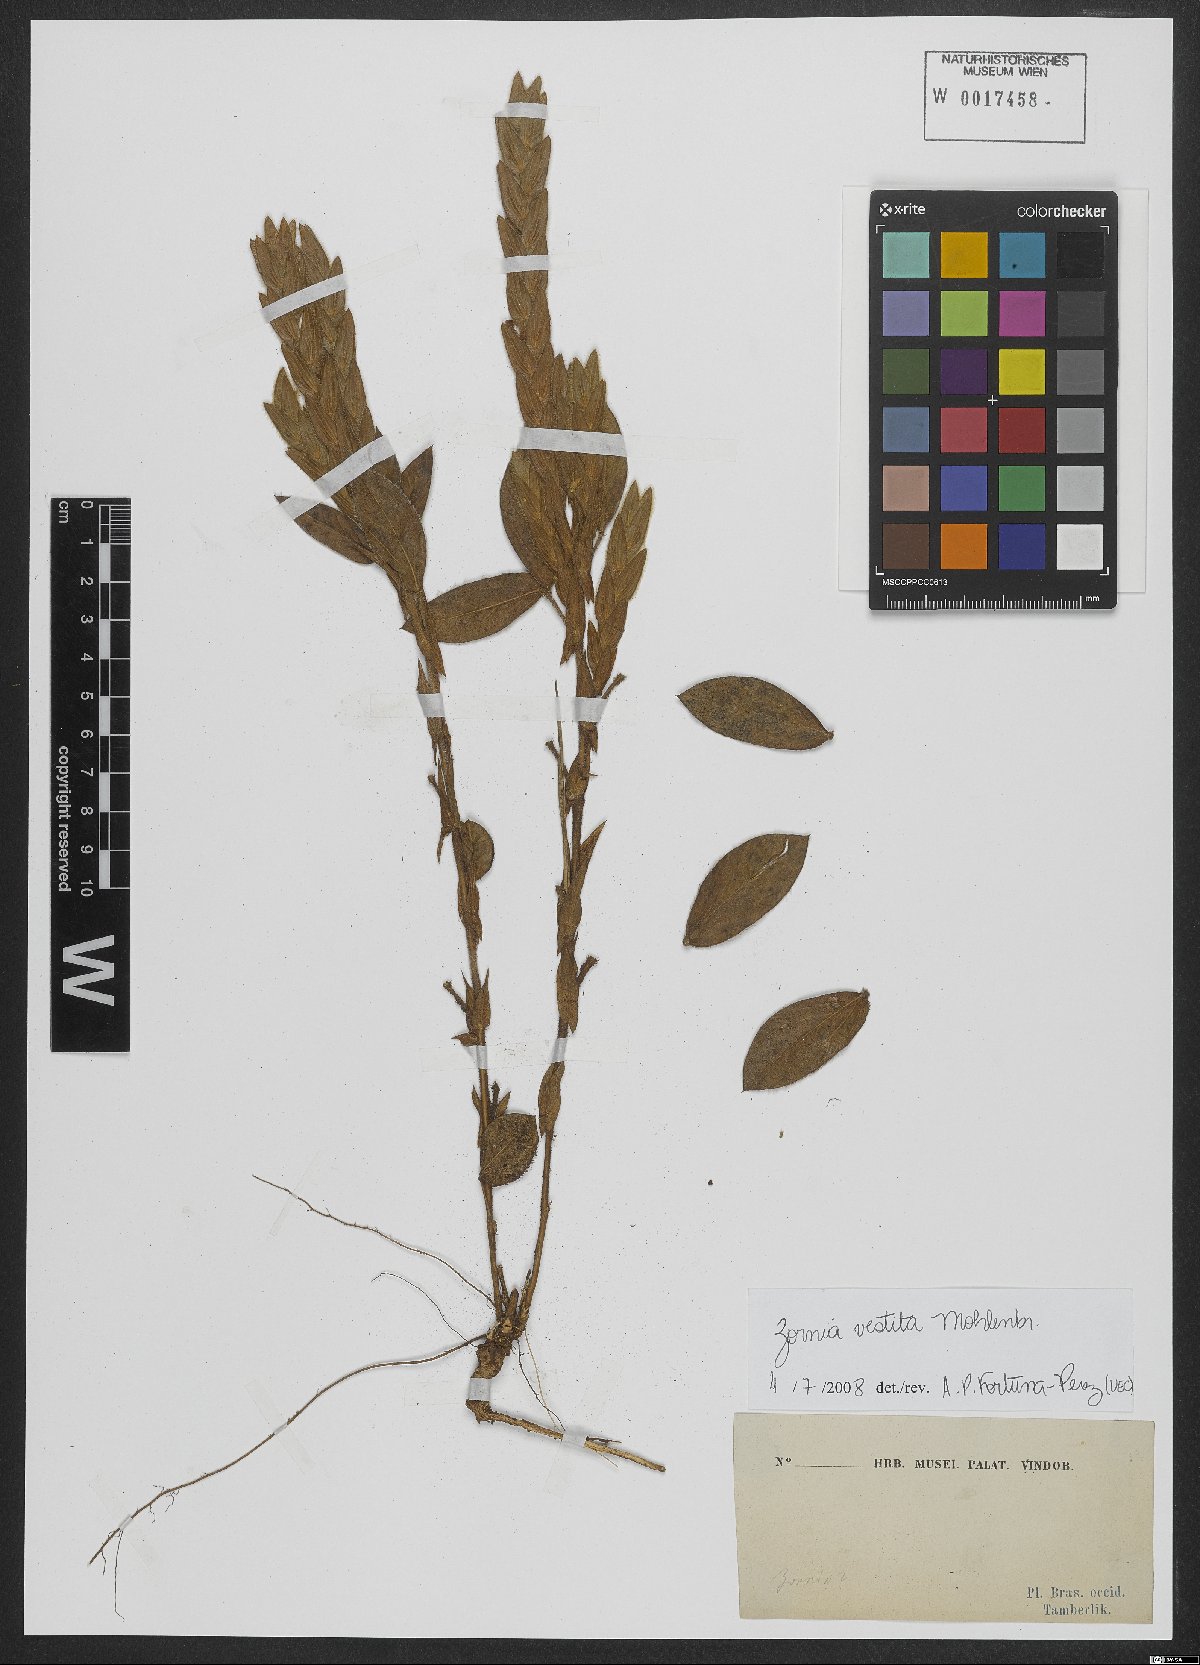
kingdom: Plantae
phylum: Tracheophyta
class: Magnoliopsida
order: Fabales
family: Fabaceae
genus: Zornia
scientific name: Zornia villosa
